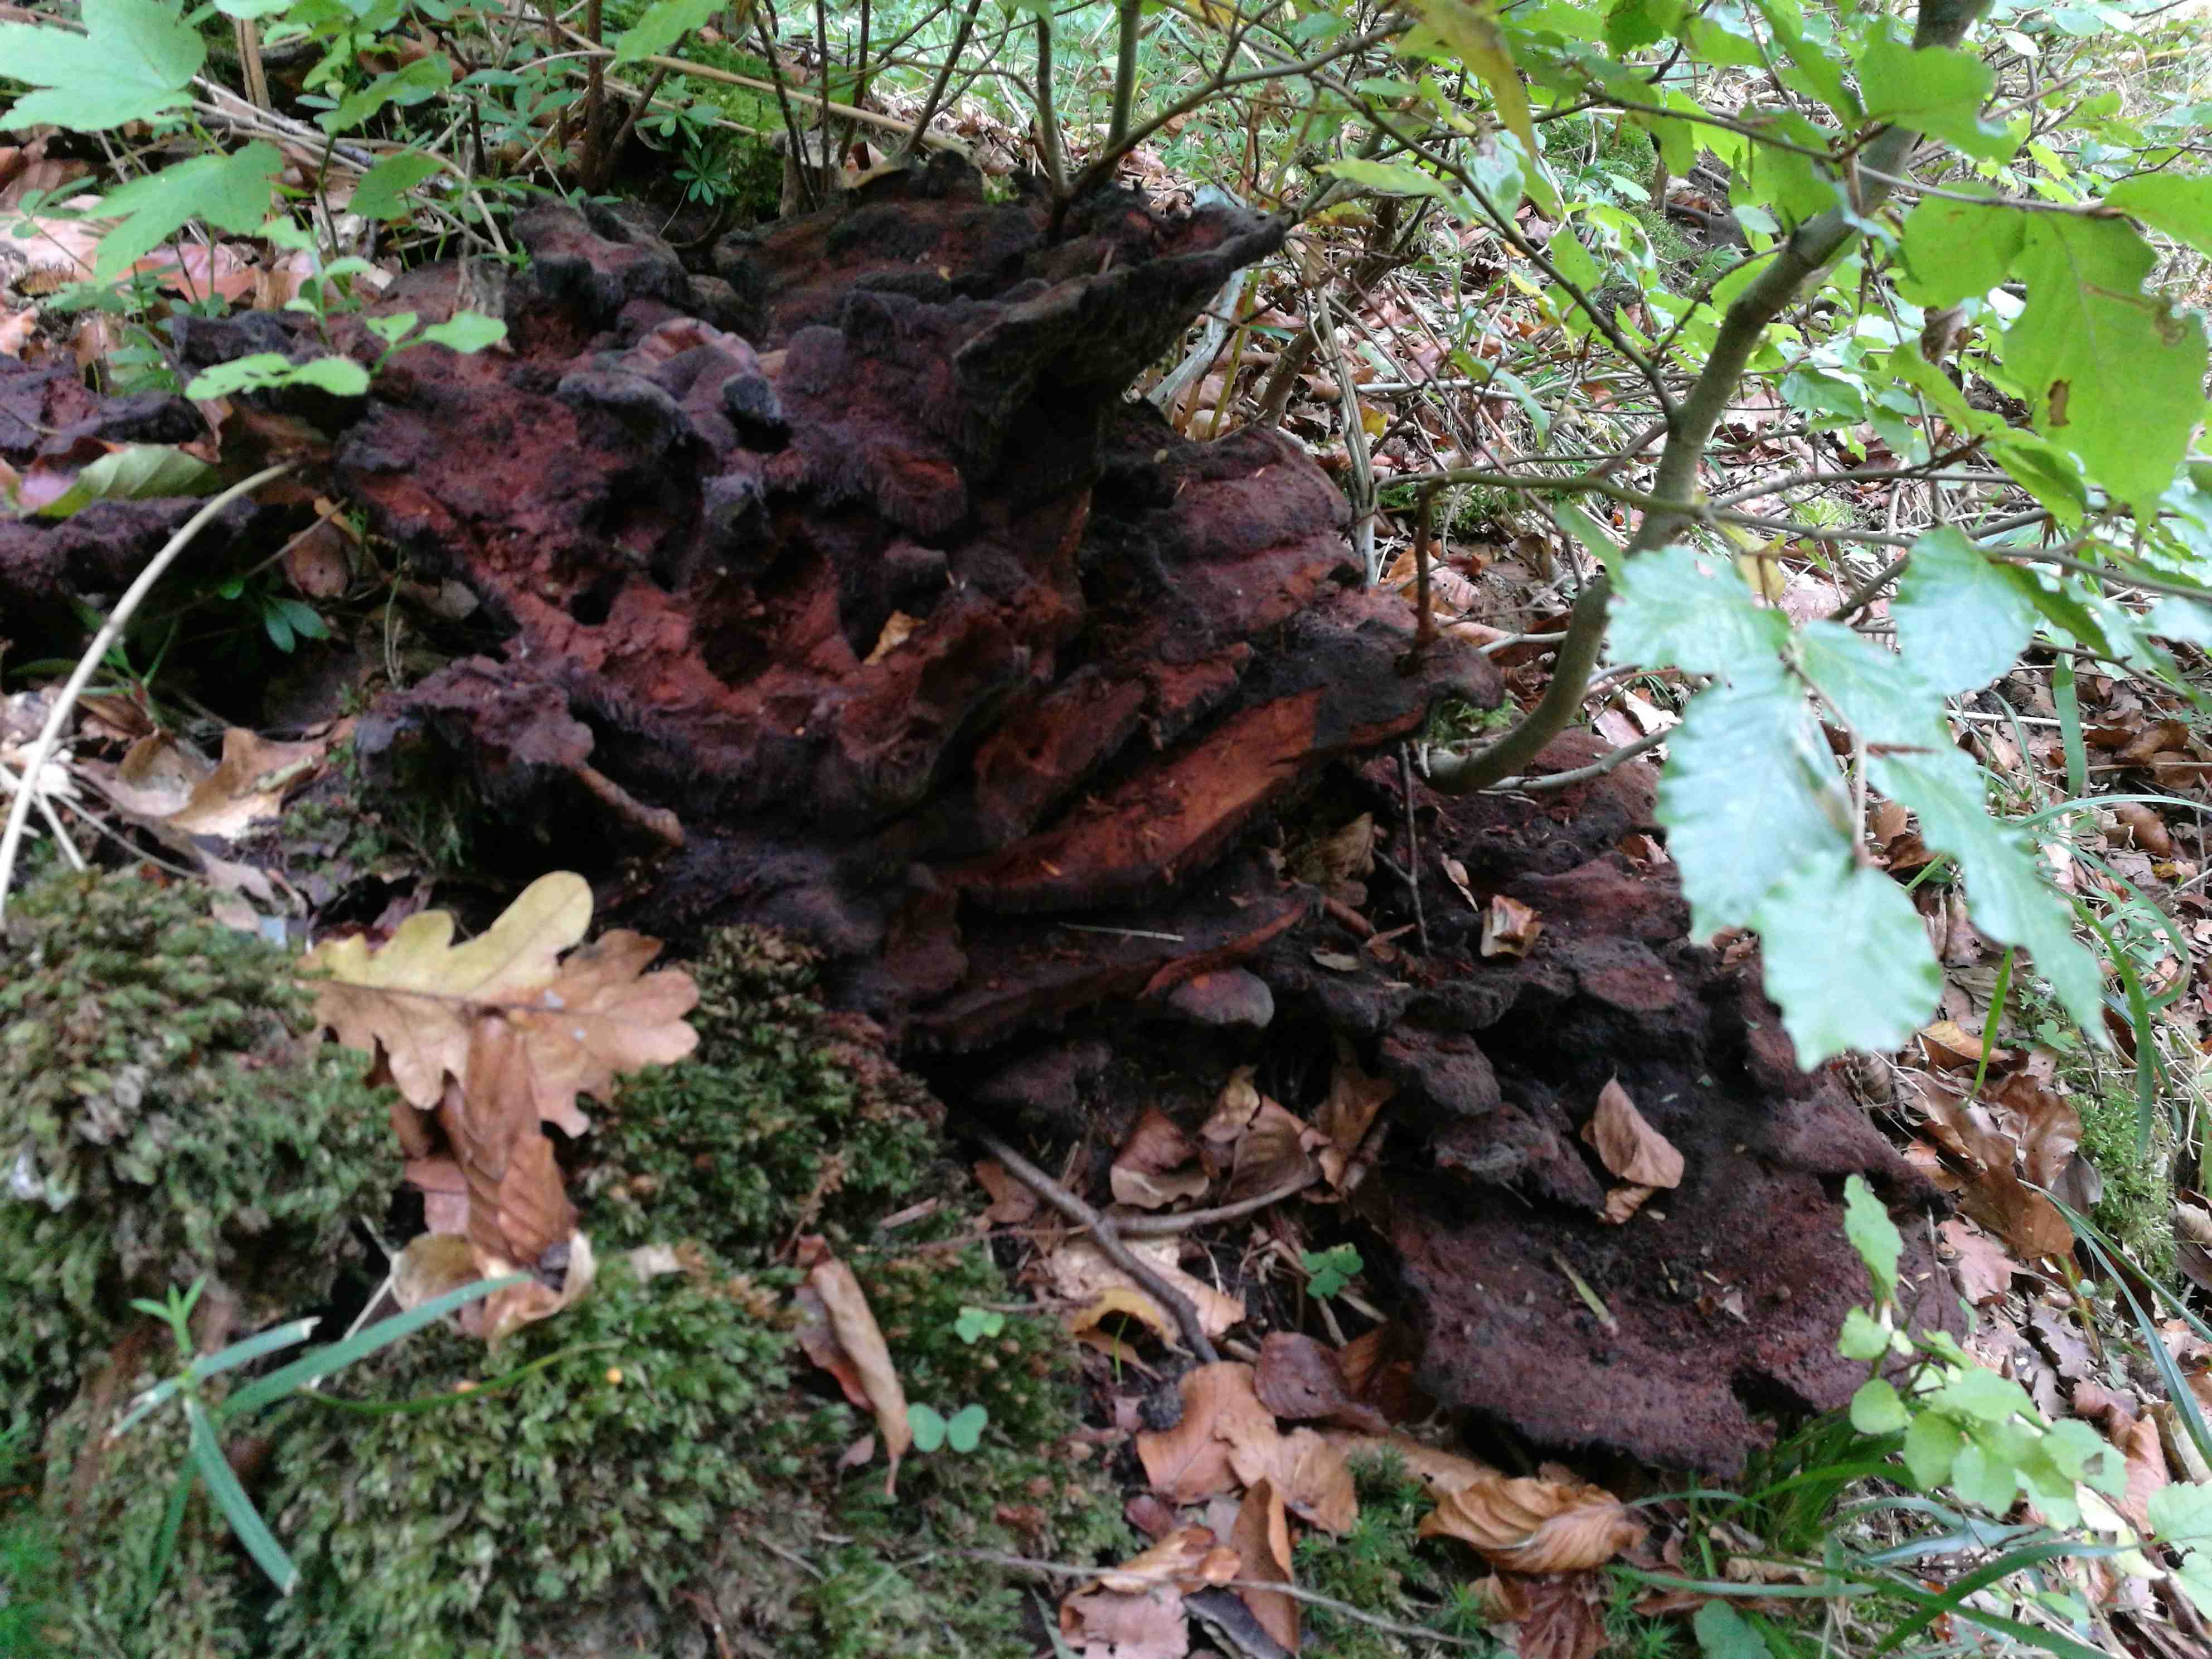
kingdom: Fungi
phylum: Basidiomycota
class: Agaricomycetes
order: Polyporales
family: Laetiporaceae
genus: Phaeolus
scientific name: Phaeolus schweinitzii
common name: brunporesvamp
